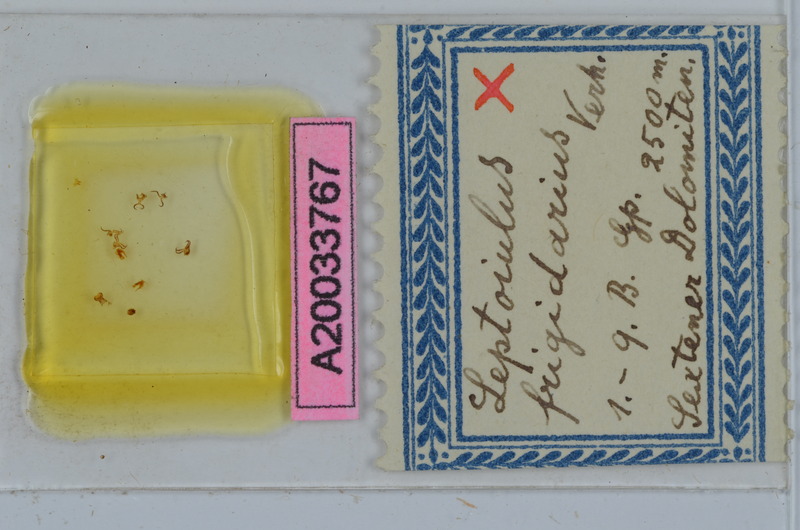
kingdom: Animalia
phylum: Arthropoda
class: Diplopoda
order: Julida
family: Julidae
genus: Leptoiulus
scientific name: Leptoiulus frigidarius
